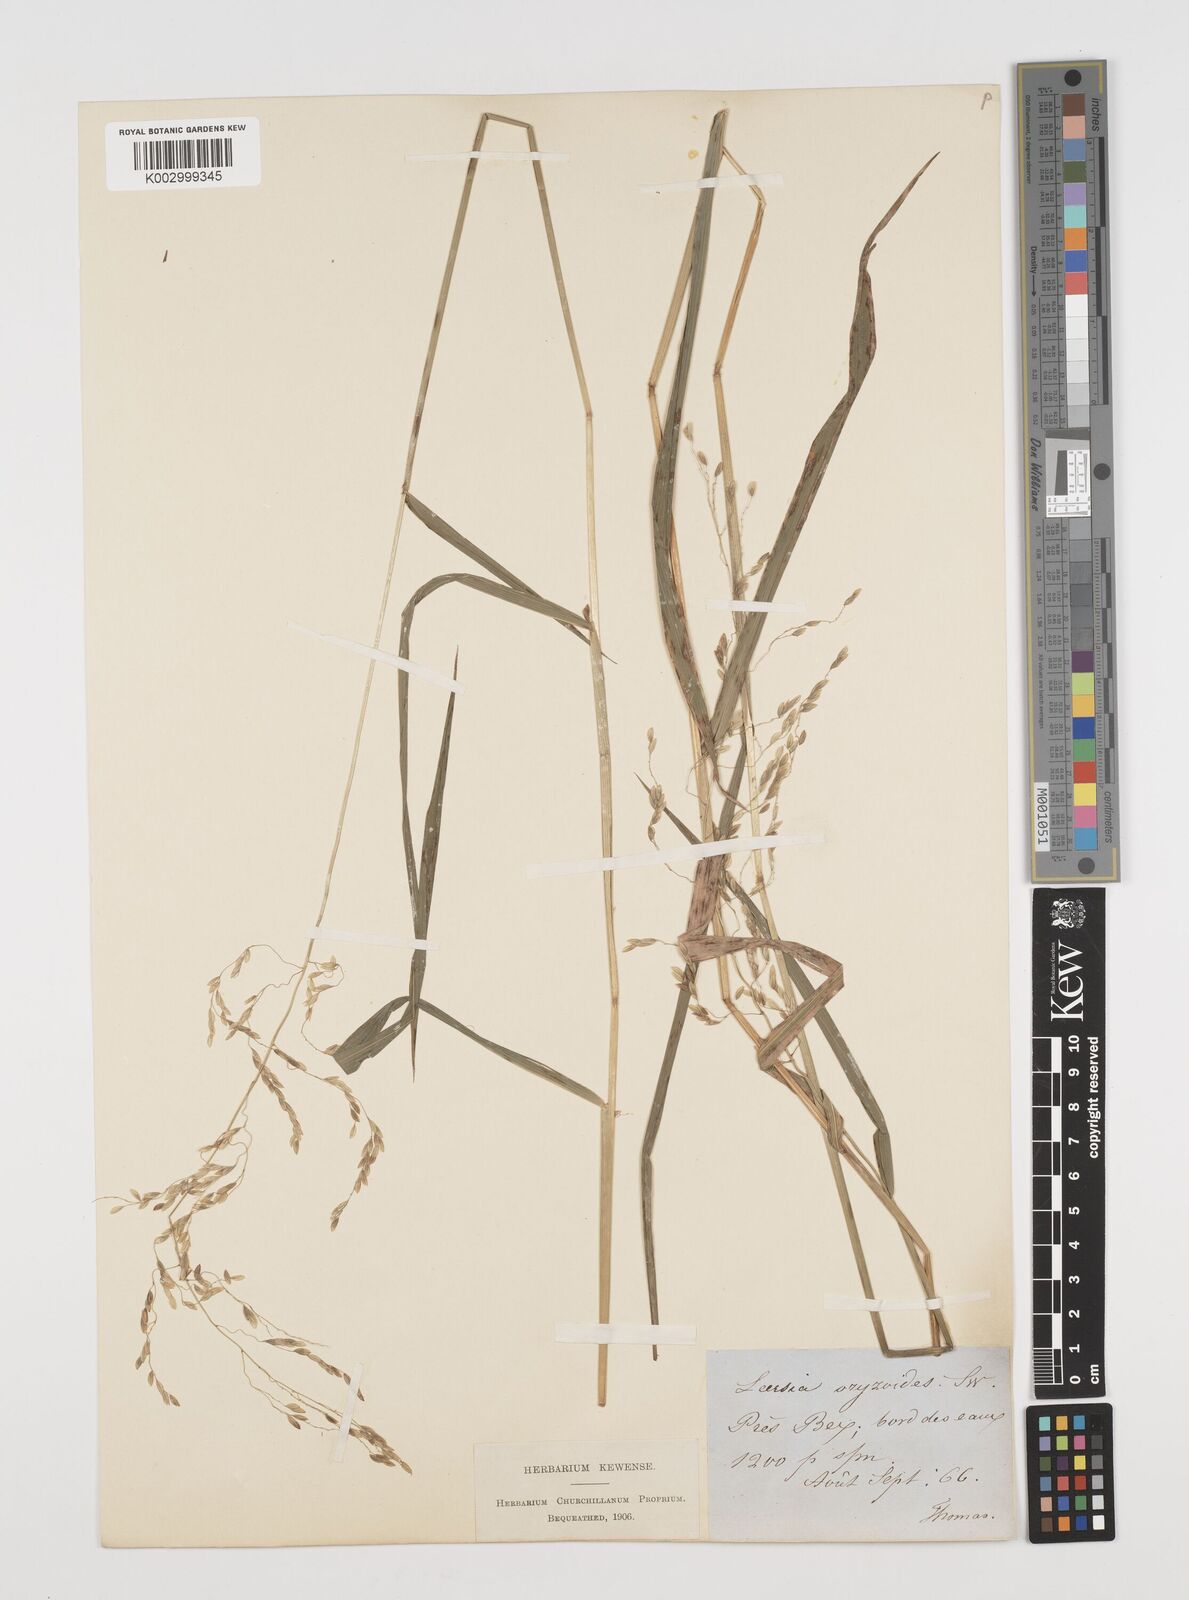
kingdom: Plantae
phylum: Tracheophyta
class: Liliopsida
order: Poales
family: Poaceae
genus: Leersia
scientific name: Leersia oryzoides
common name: Cut-grass
